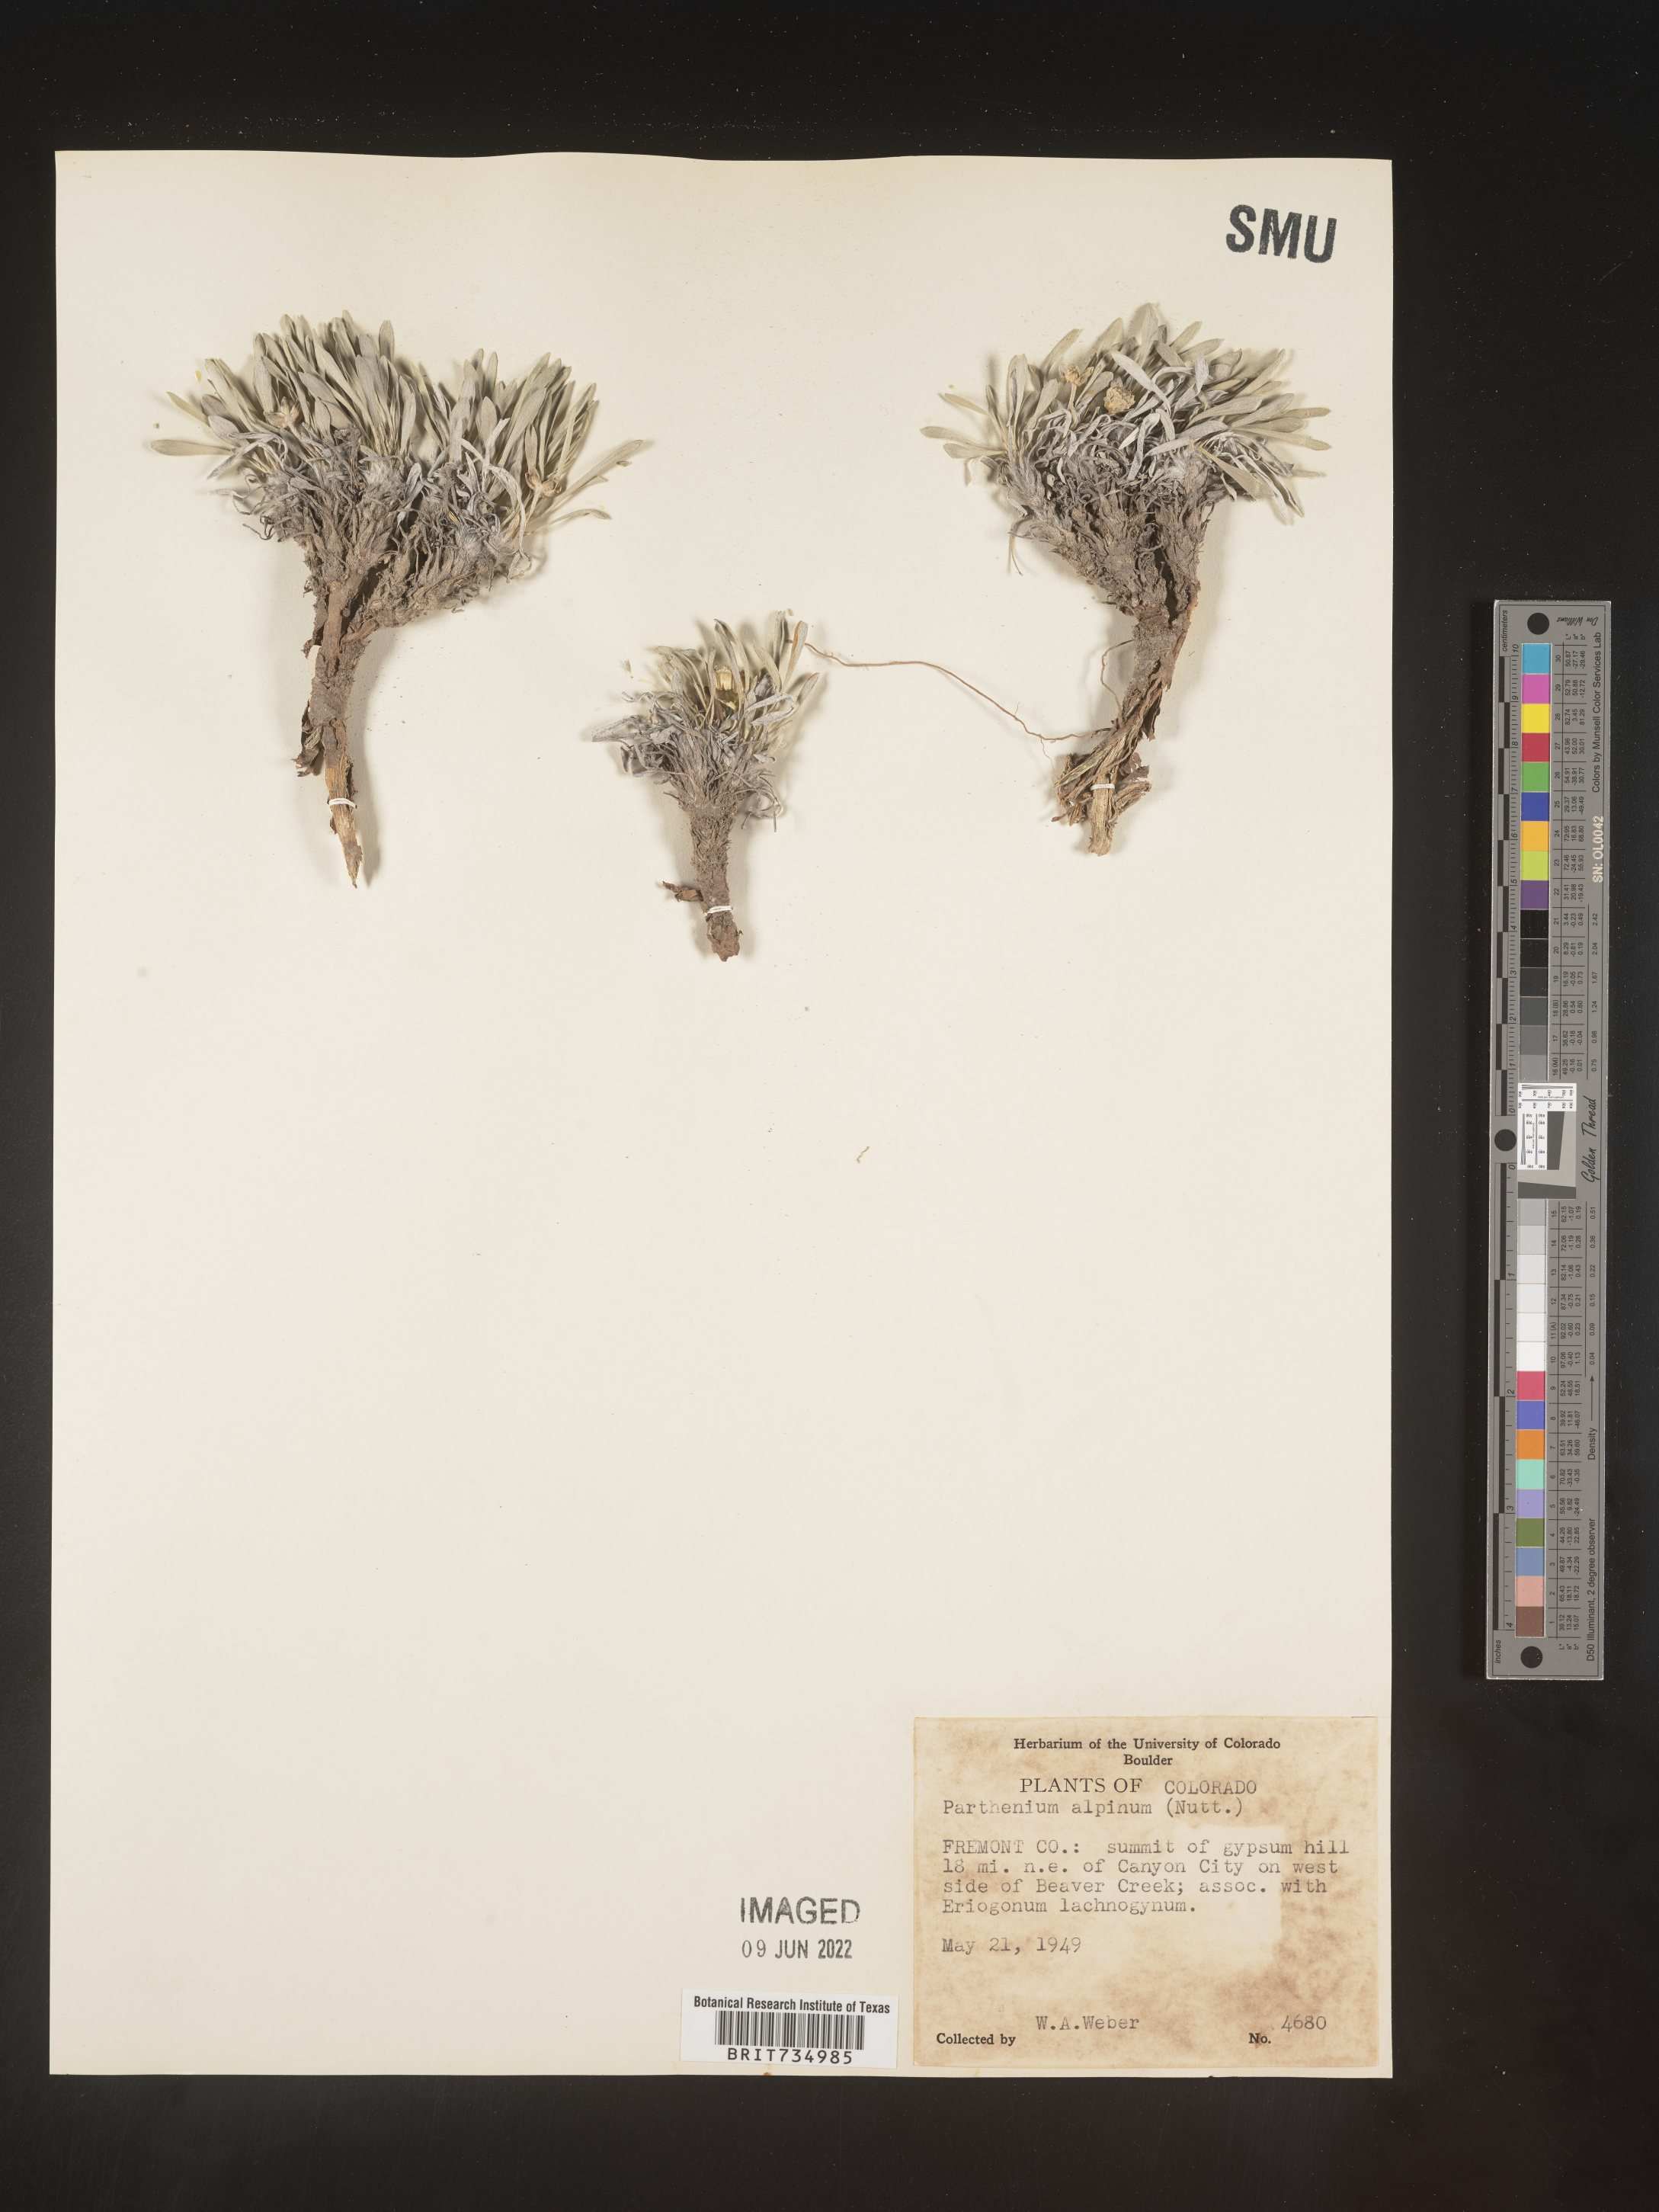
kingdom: Plantae
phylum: Tracheophyta
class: Magnoliopsida
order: Asterales
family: Asteraceae
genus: Parthenium
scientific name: Parthenium alpinum
